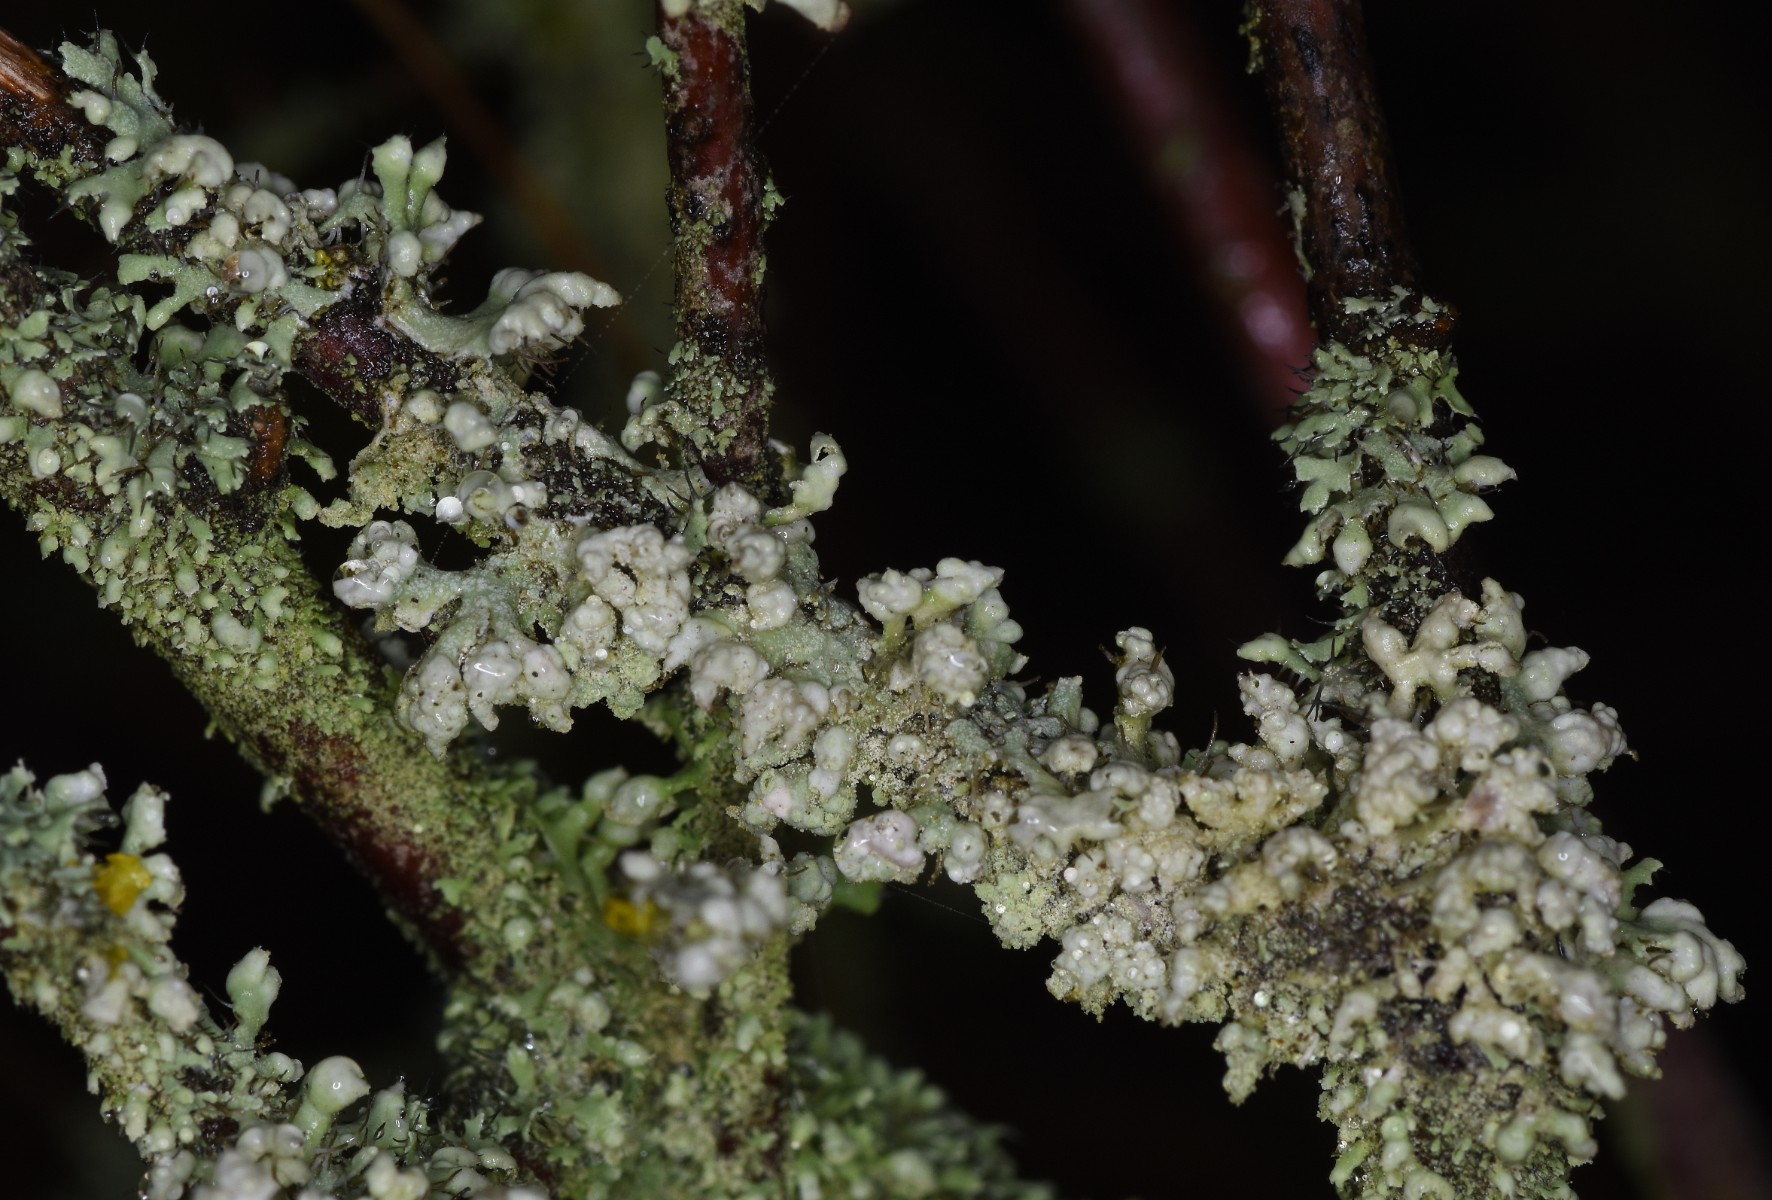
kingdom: Fungi
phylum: Ascomycota
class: Lecanoromycetes
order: Caliciales
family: Physciaceae
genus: Physcia
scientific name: Physcia adscendens
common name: hætte-rosetlav
